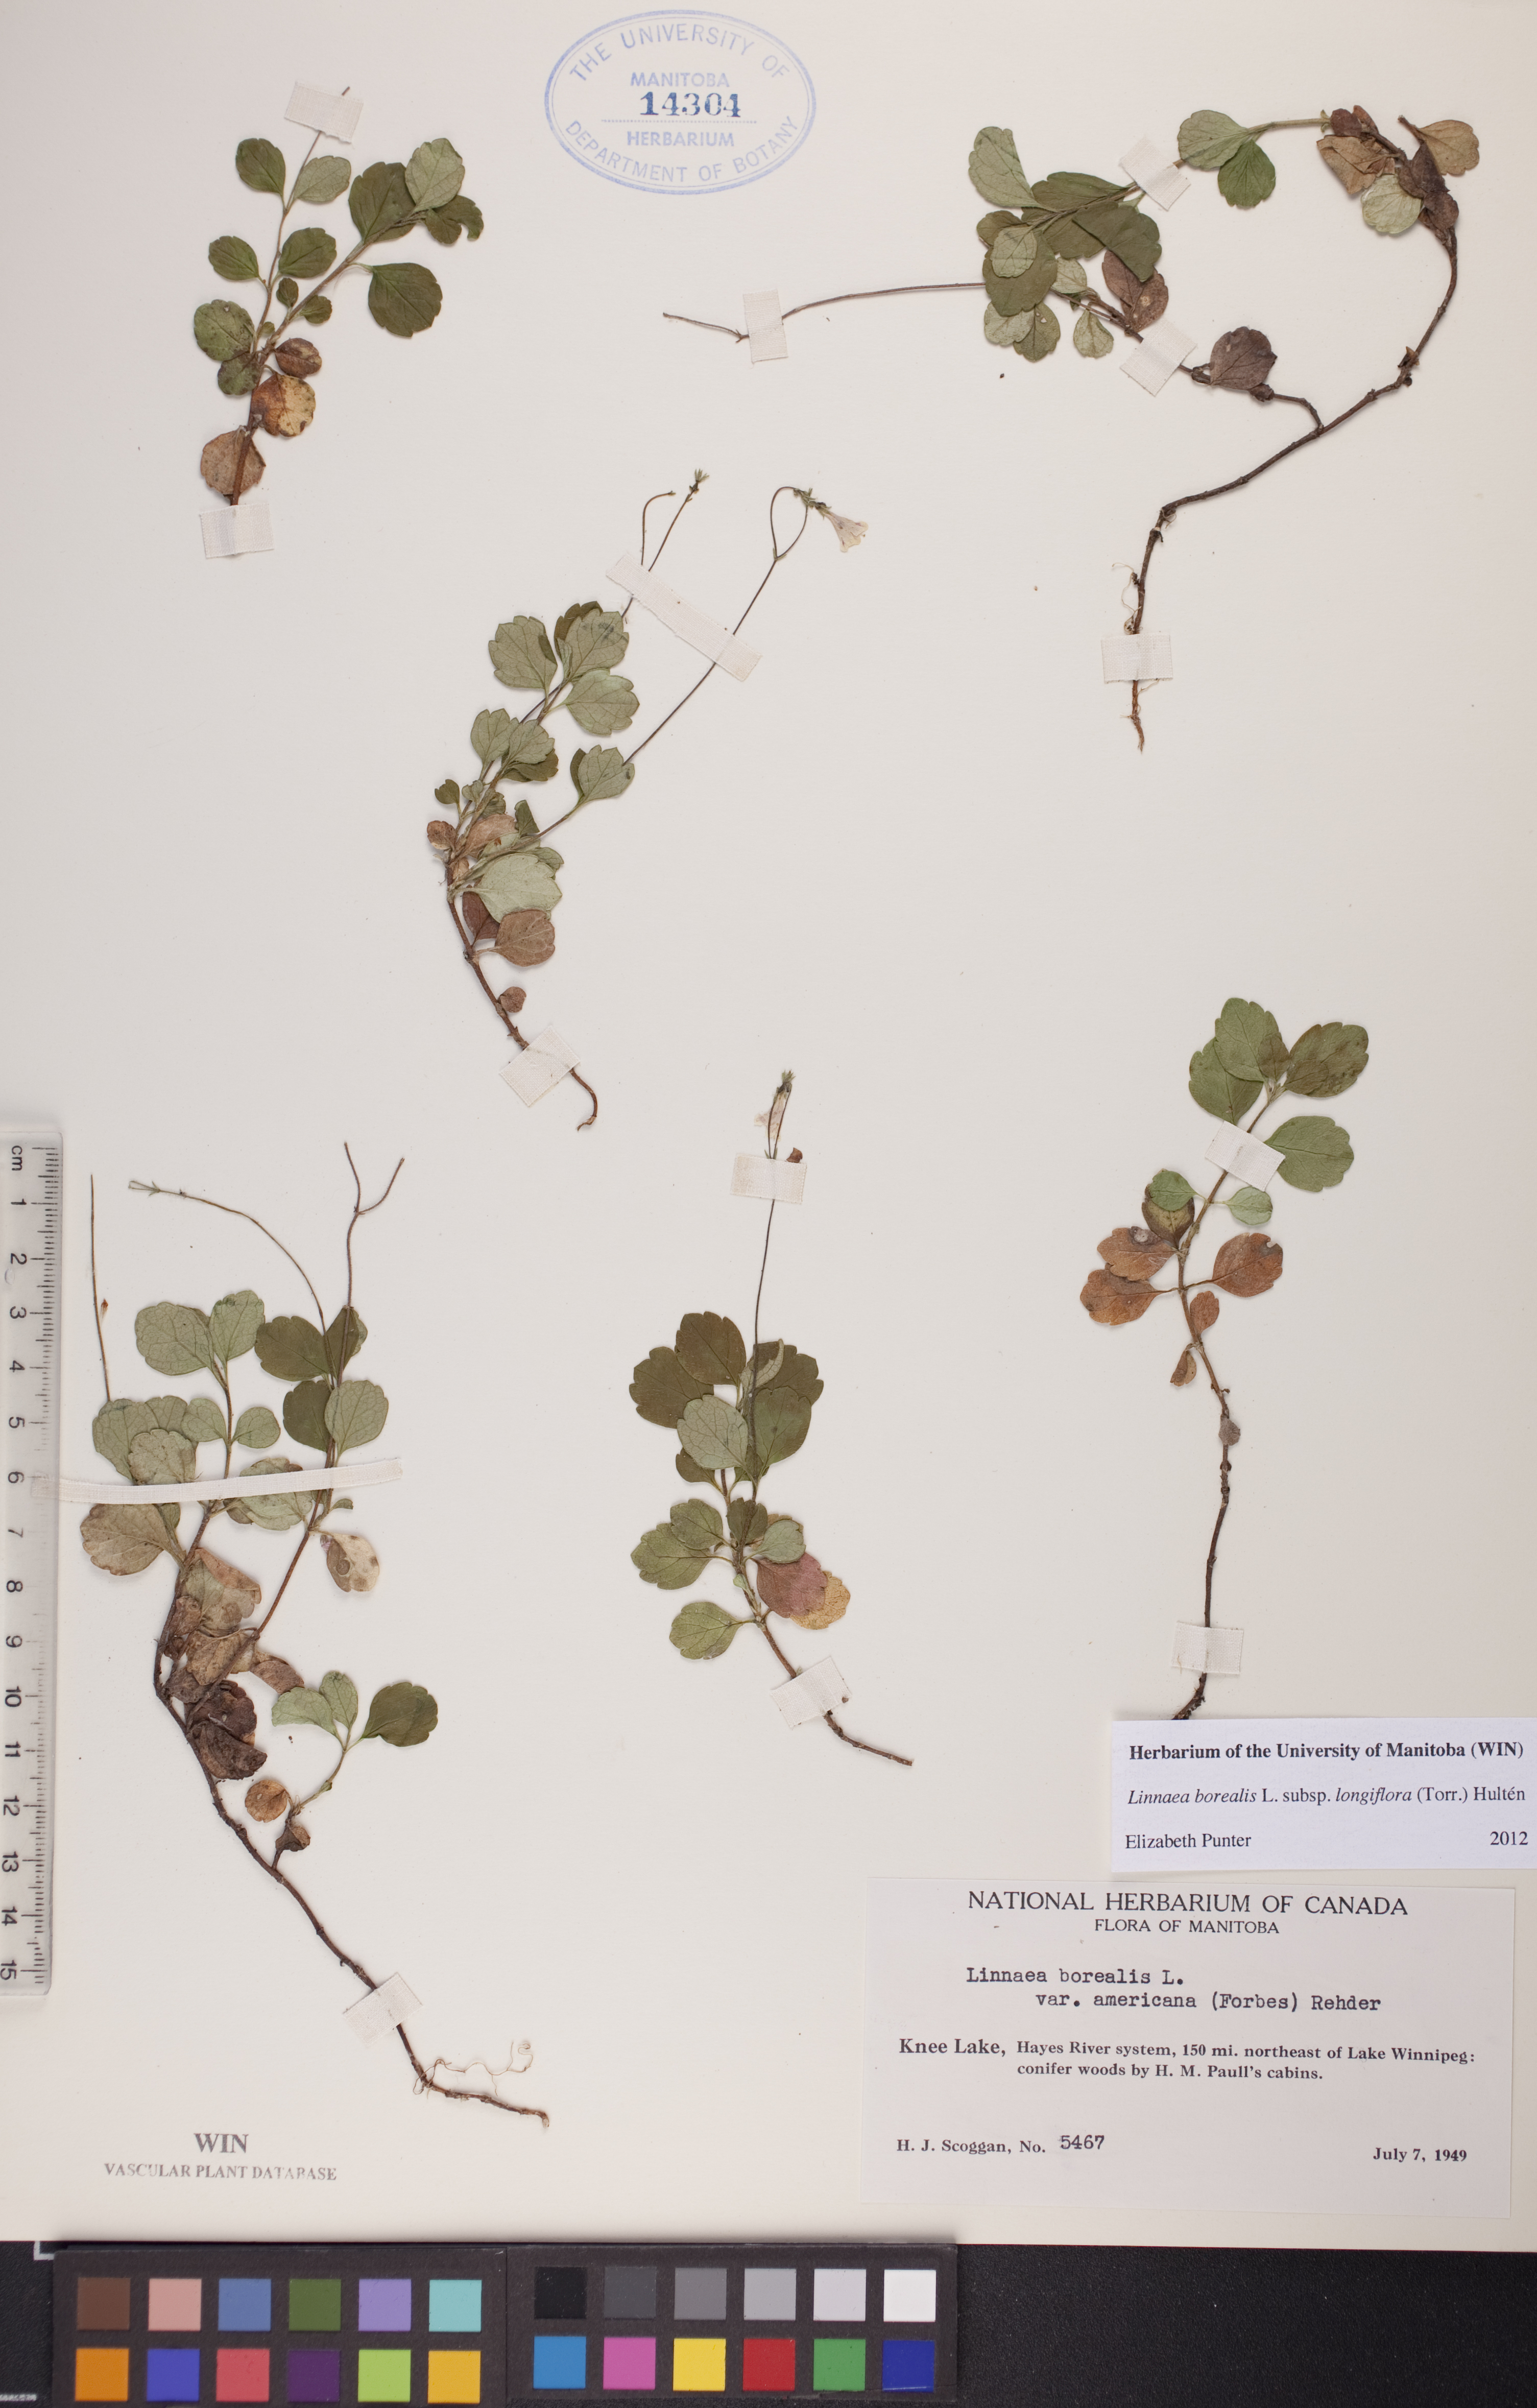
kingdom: Plantae
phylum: Tracheophyta
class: Magnoliopsida
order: Dipsacales
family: Caprifoliaceae
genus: Linnaea
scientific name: Linnaea borealis
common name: Twinflower
